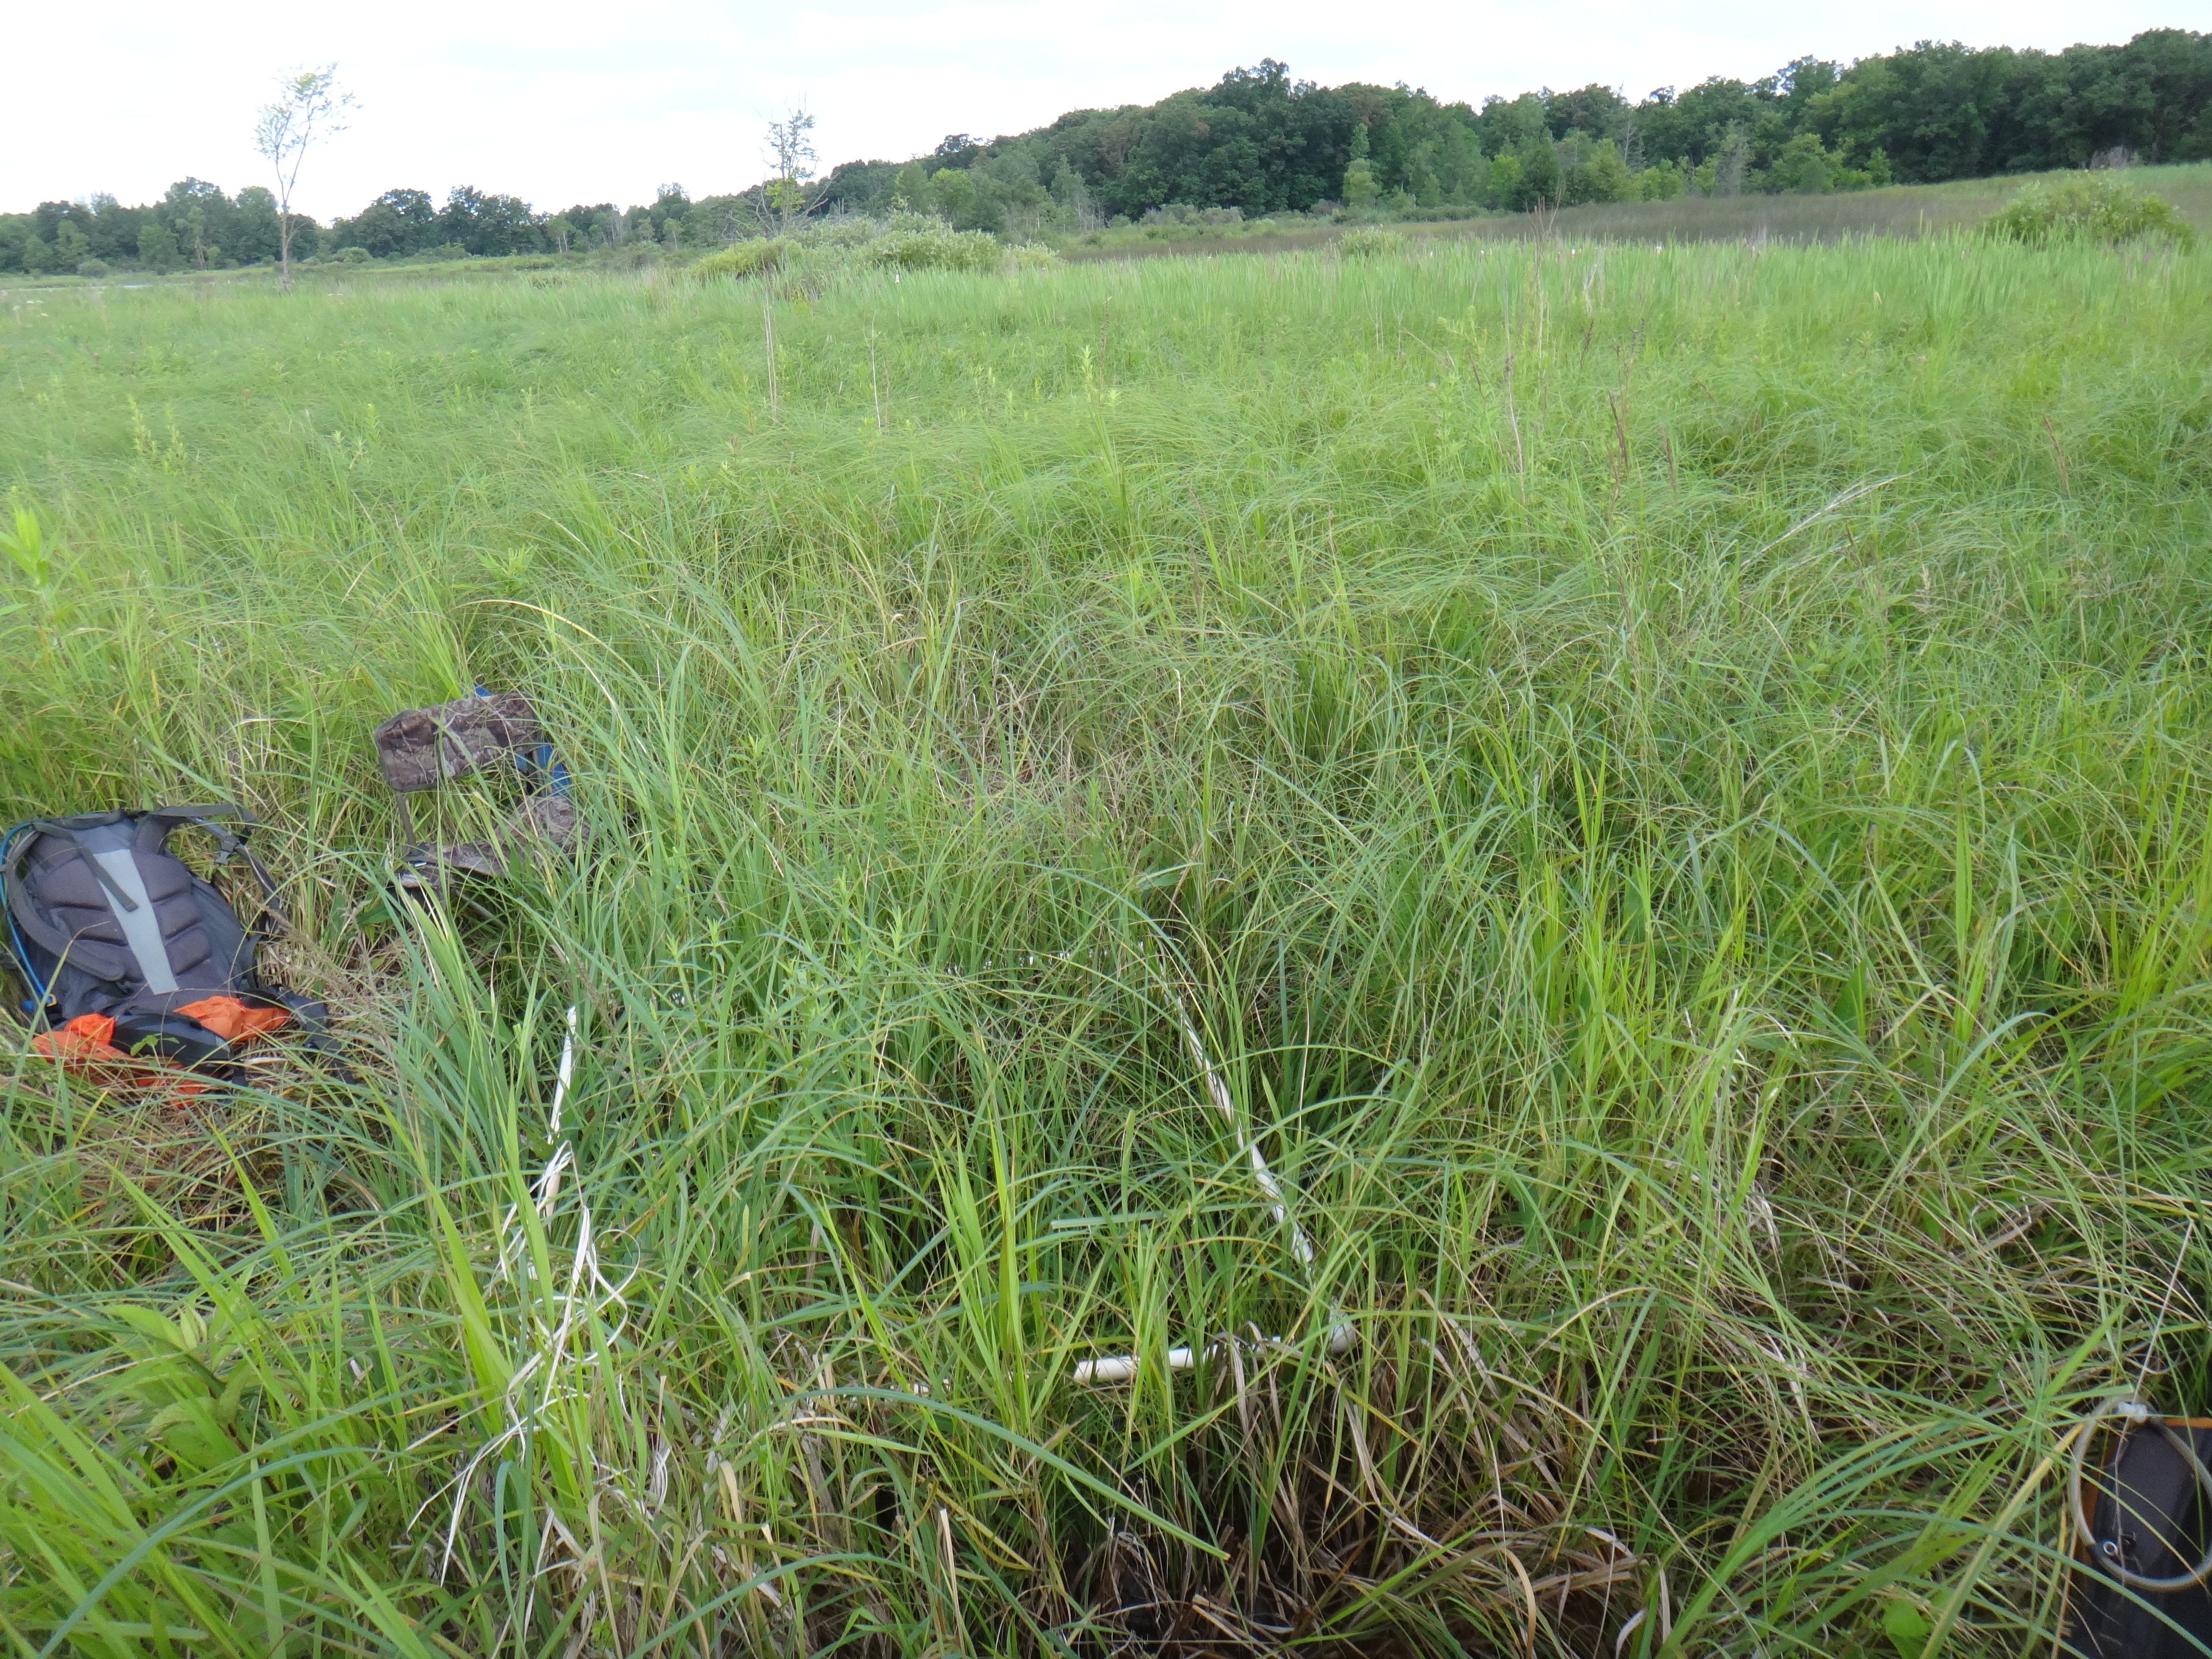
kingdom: Plantae
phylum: Tracheophyta
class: Magnoliopsida
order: Ericales
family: Primulaceae
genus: Lysimachia
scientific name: Lysimachia thyrsiflora
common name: Tufted loosestrife
